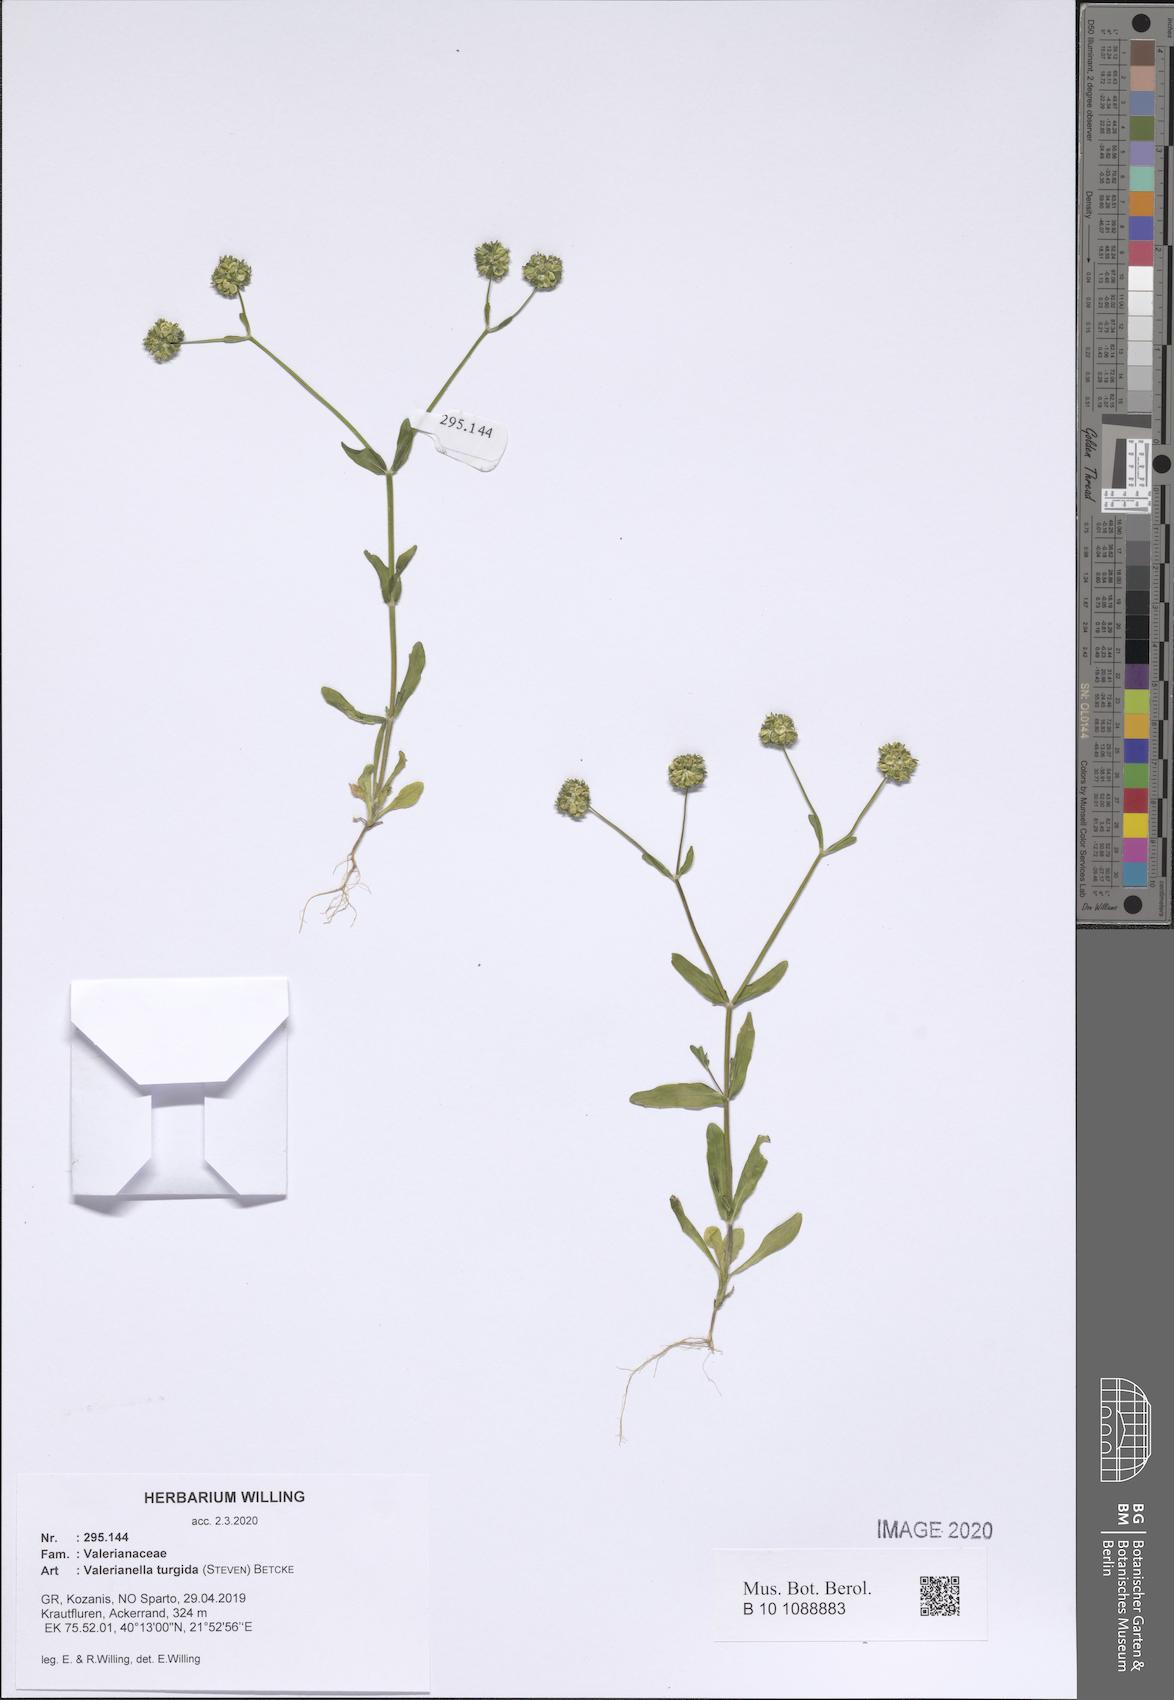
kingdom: Plantae
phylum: Tracheophyta
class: Magnoliopsida
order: Dipsacales
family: Caprifoliaceae
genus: Valerianella
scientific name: Valerianella turgida
